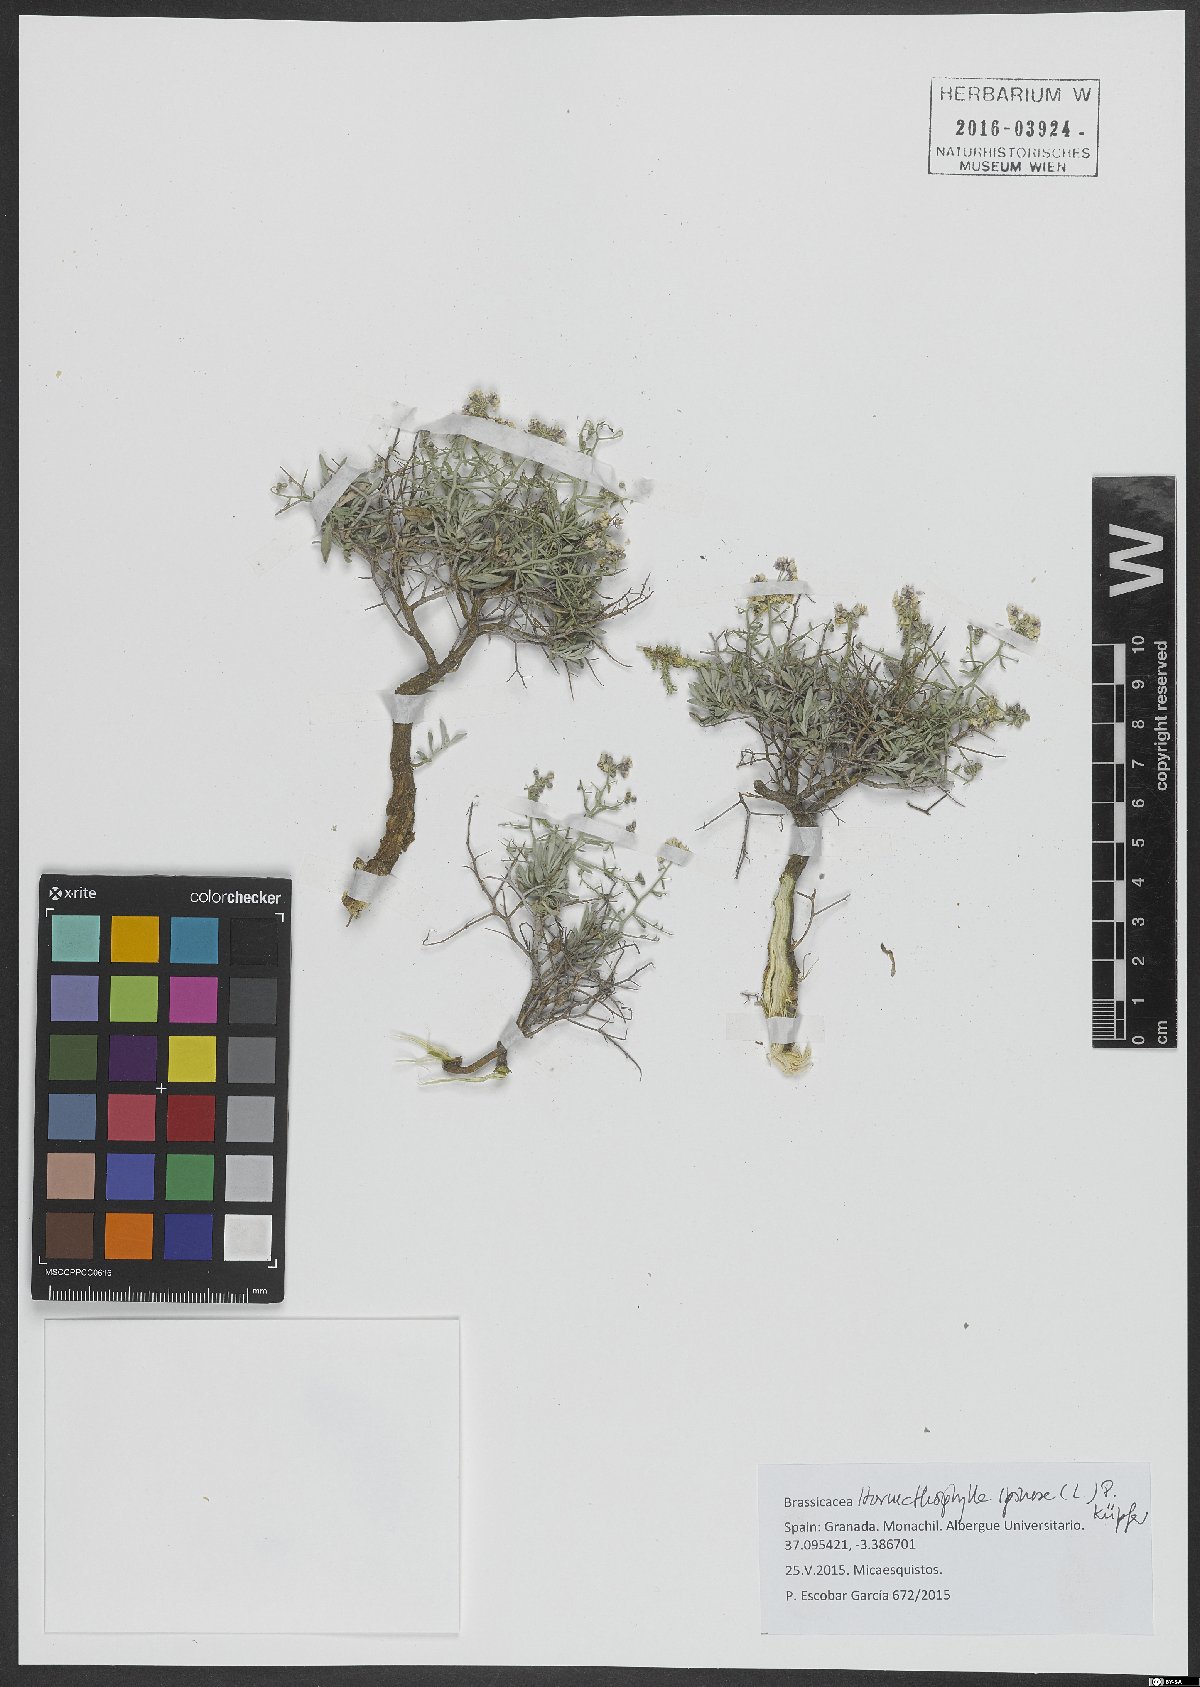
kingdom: Plantae
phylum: Tracheophyta
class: Magnoliopsida
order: Brassicales
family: Brassicaceae
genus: Hormathophylla
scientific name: Hormathophylla spinosa
